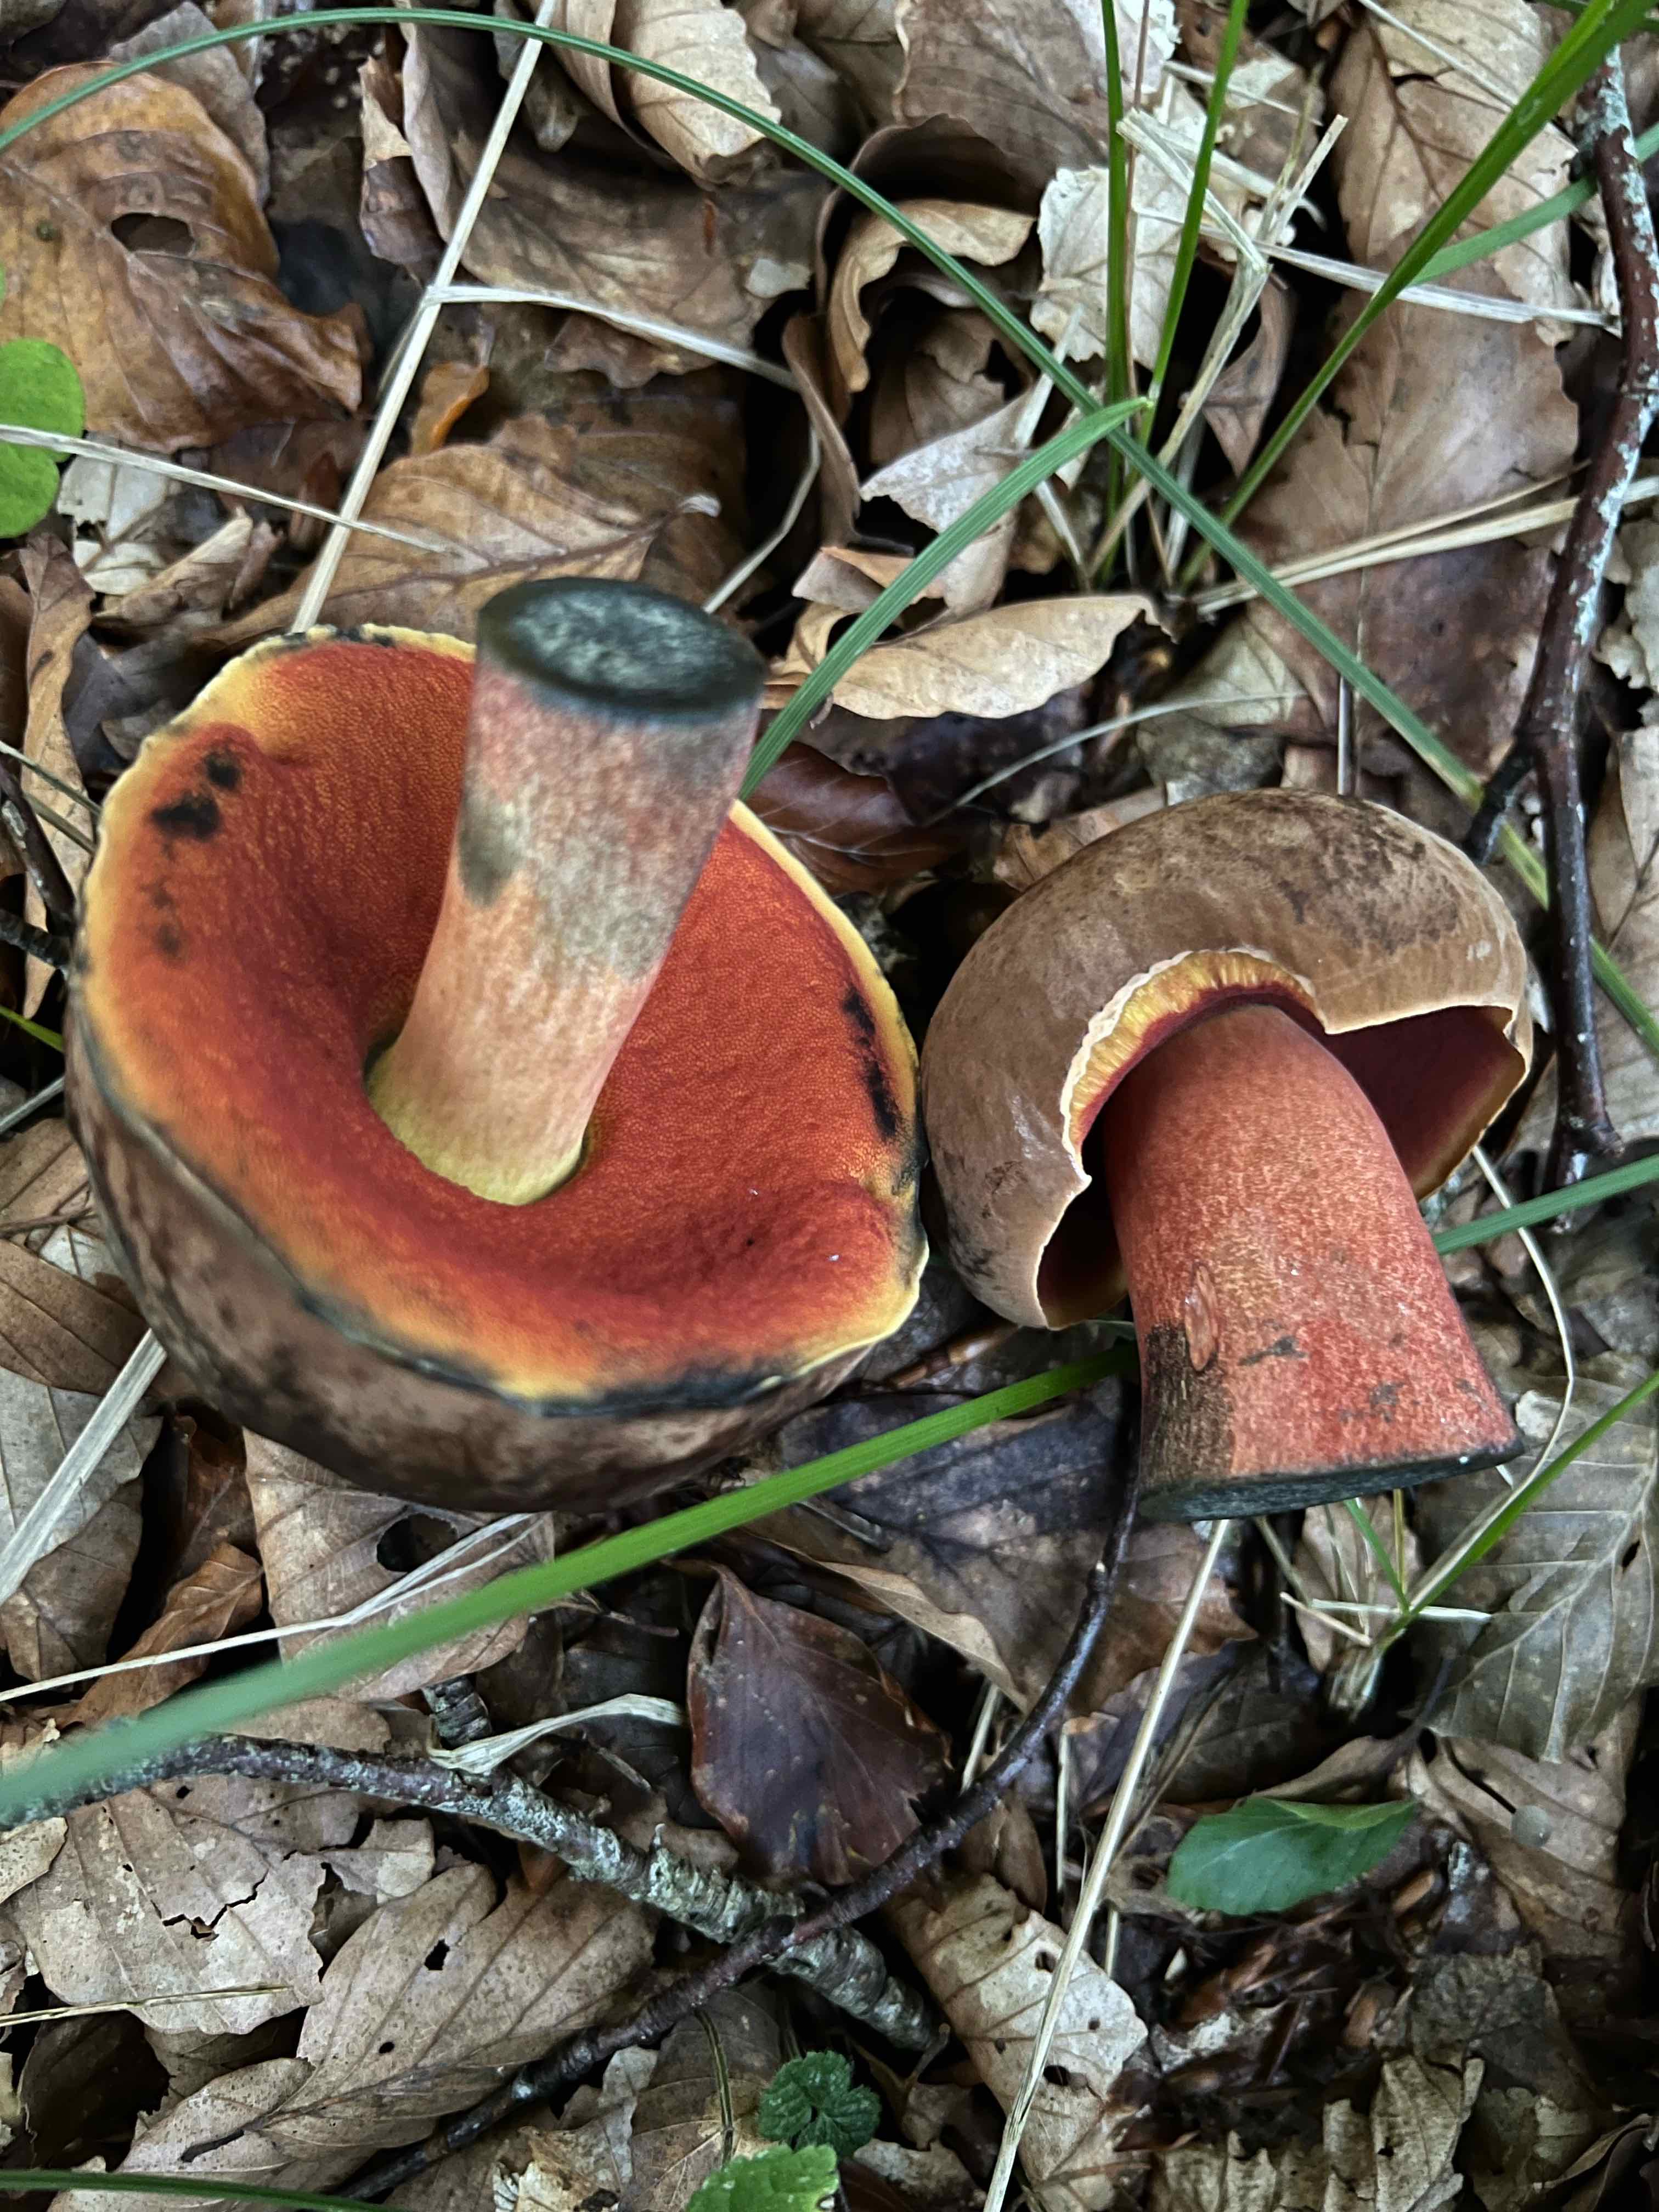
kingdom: Fungi
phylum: Basidiomycota
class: Agaricomycetes
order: Boletales
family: Boletaceae
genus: Neoboletus
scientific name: Neoboletus erythropus
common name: punktstokket indigorørhat
